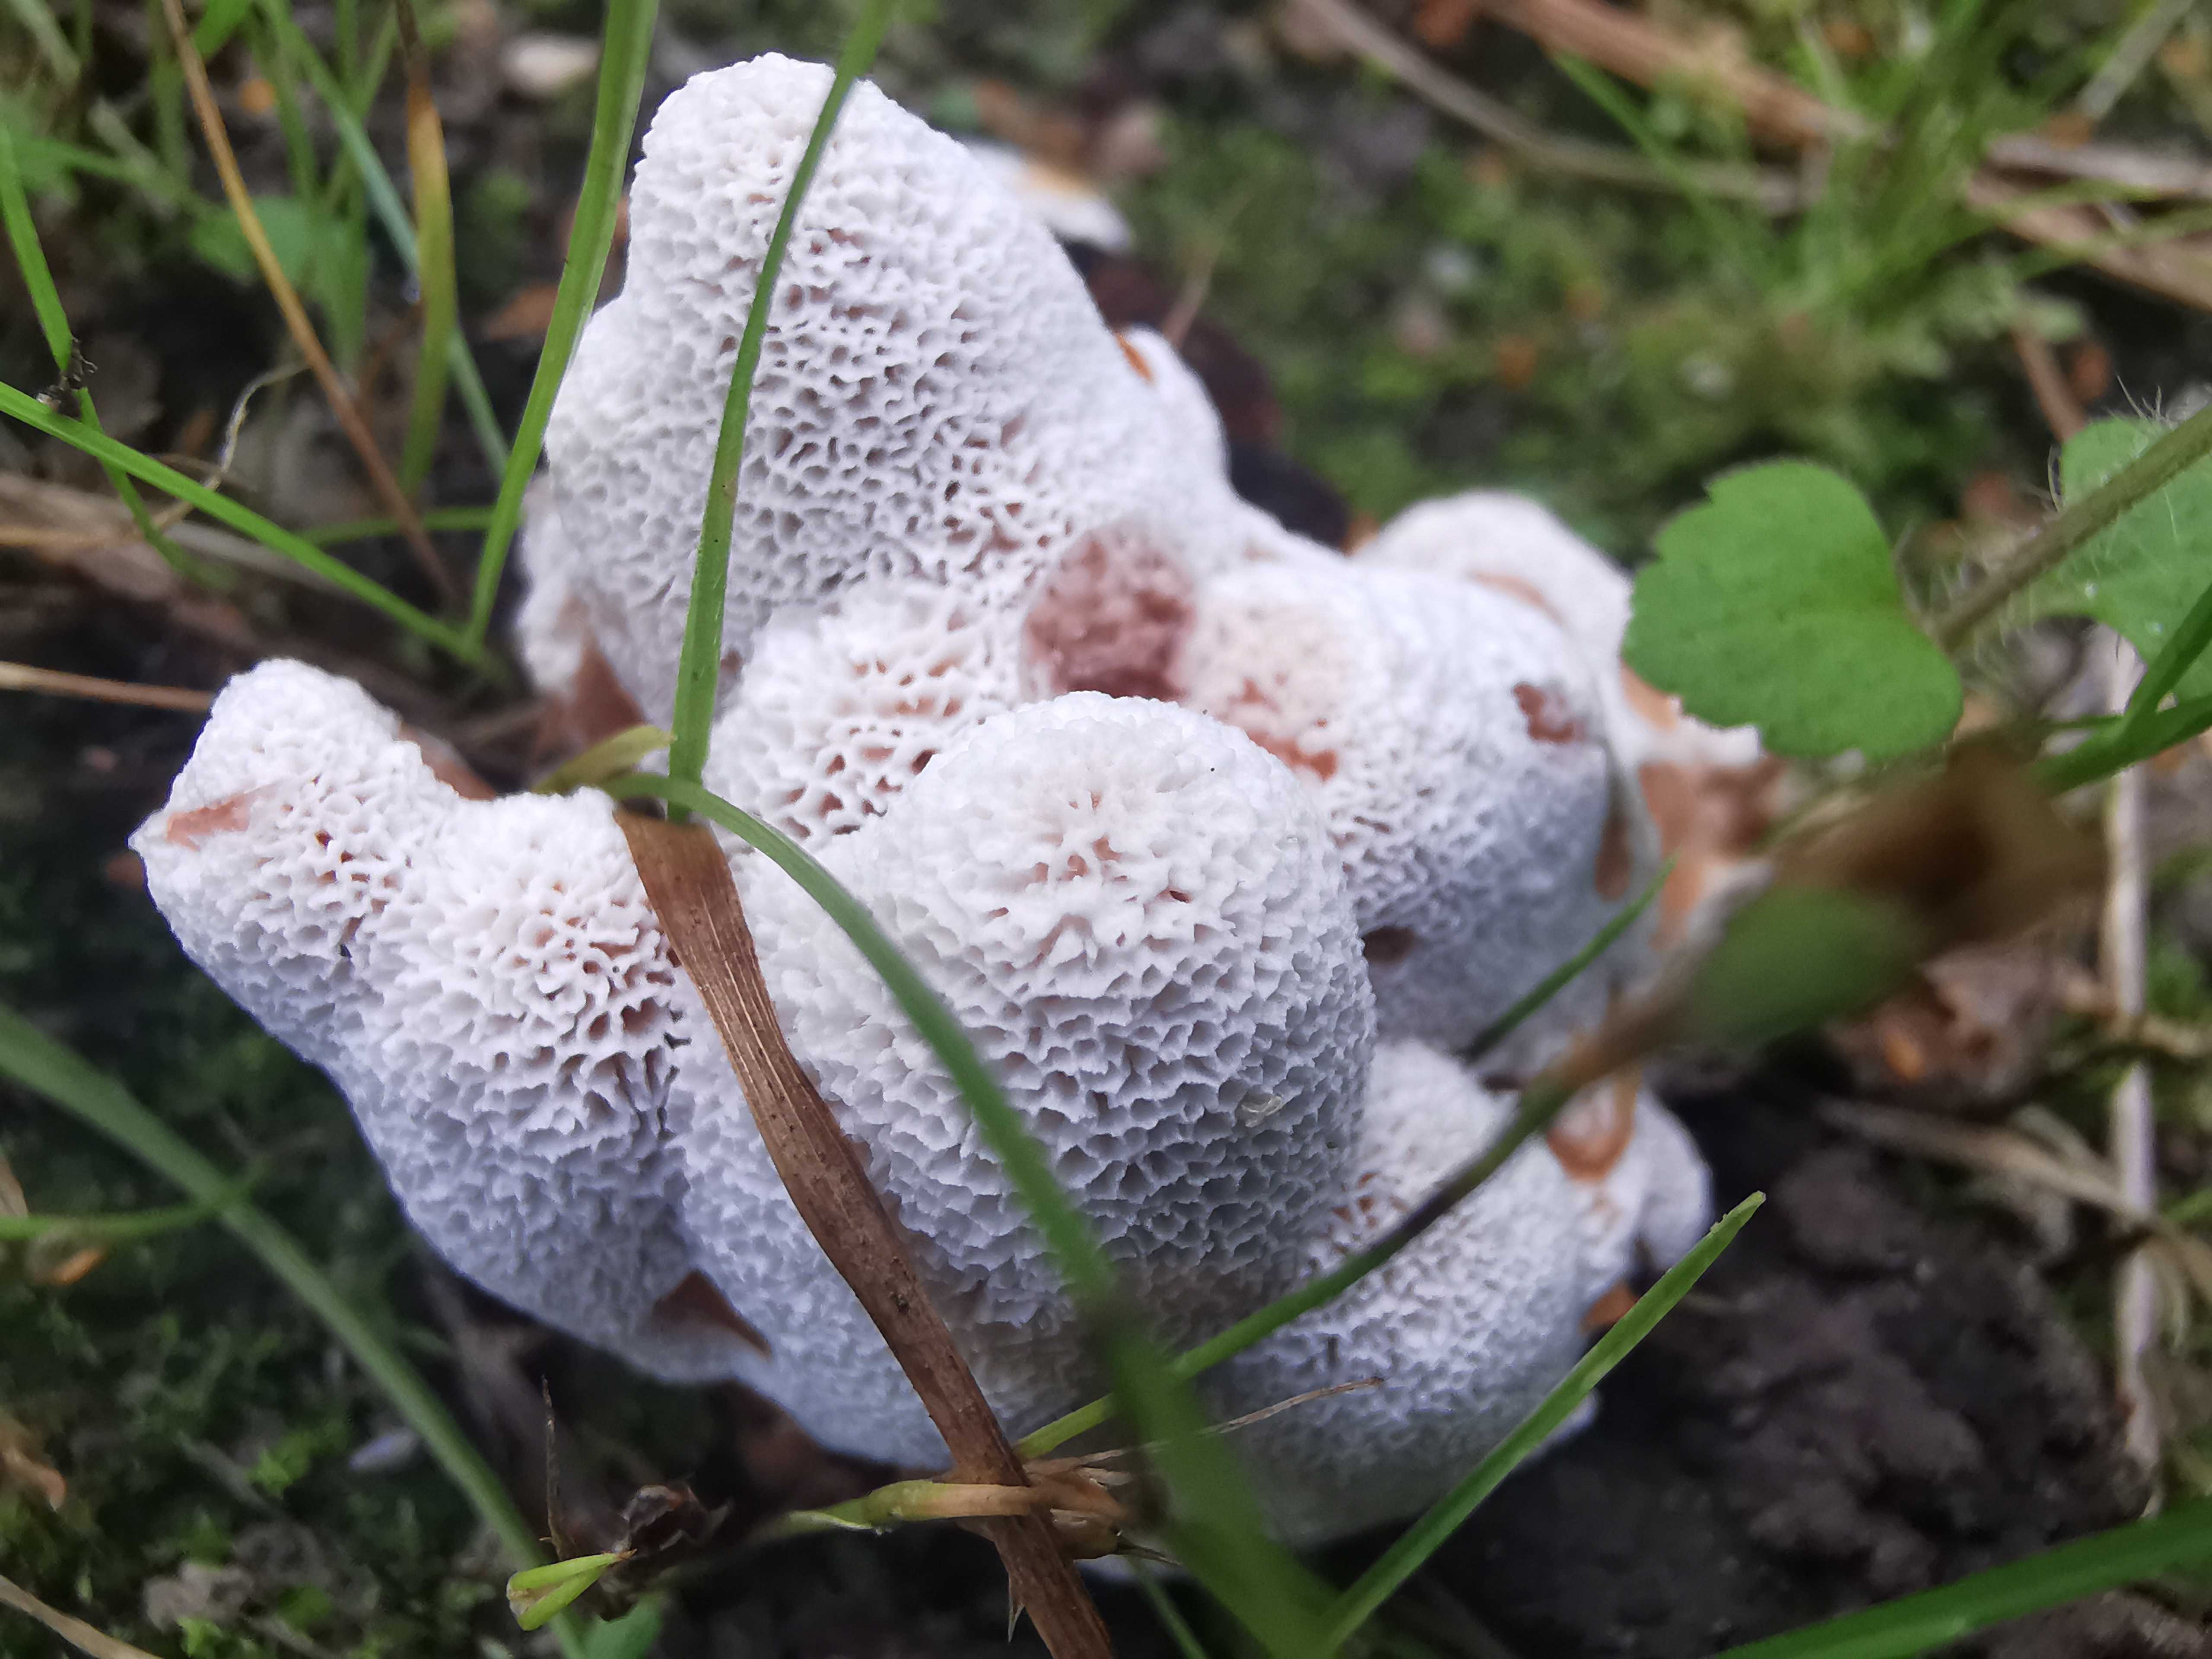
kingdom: Fungi
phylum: Basidiomycota
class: Agaricomycetes
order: Polyporales
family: Podoscyphaceae
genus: Abortiporus
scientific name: Abortiporus biennis
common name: rødmende pjalteporesvamp
